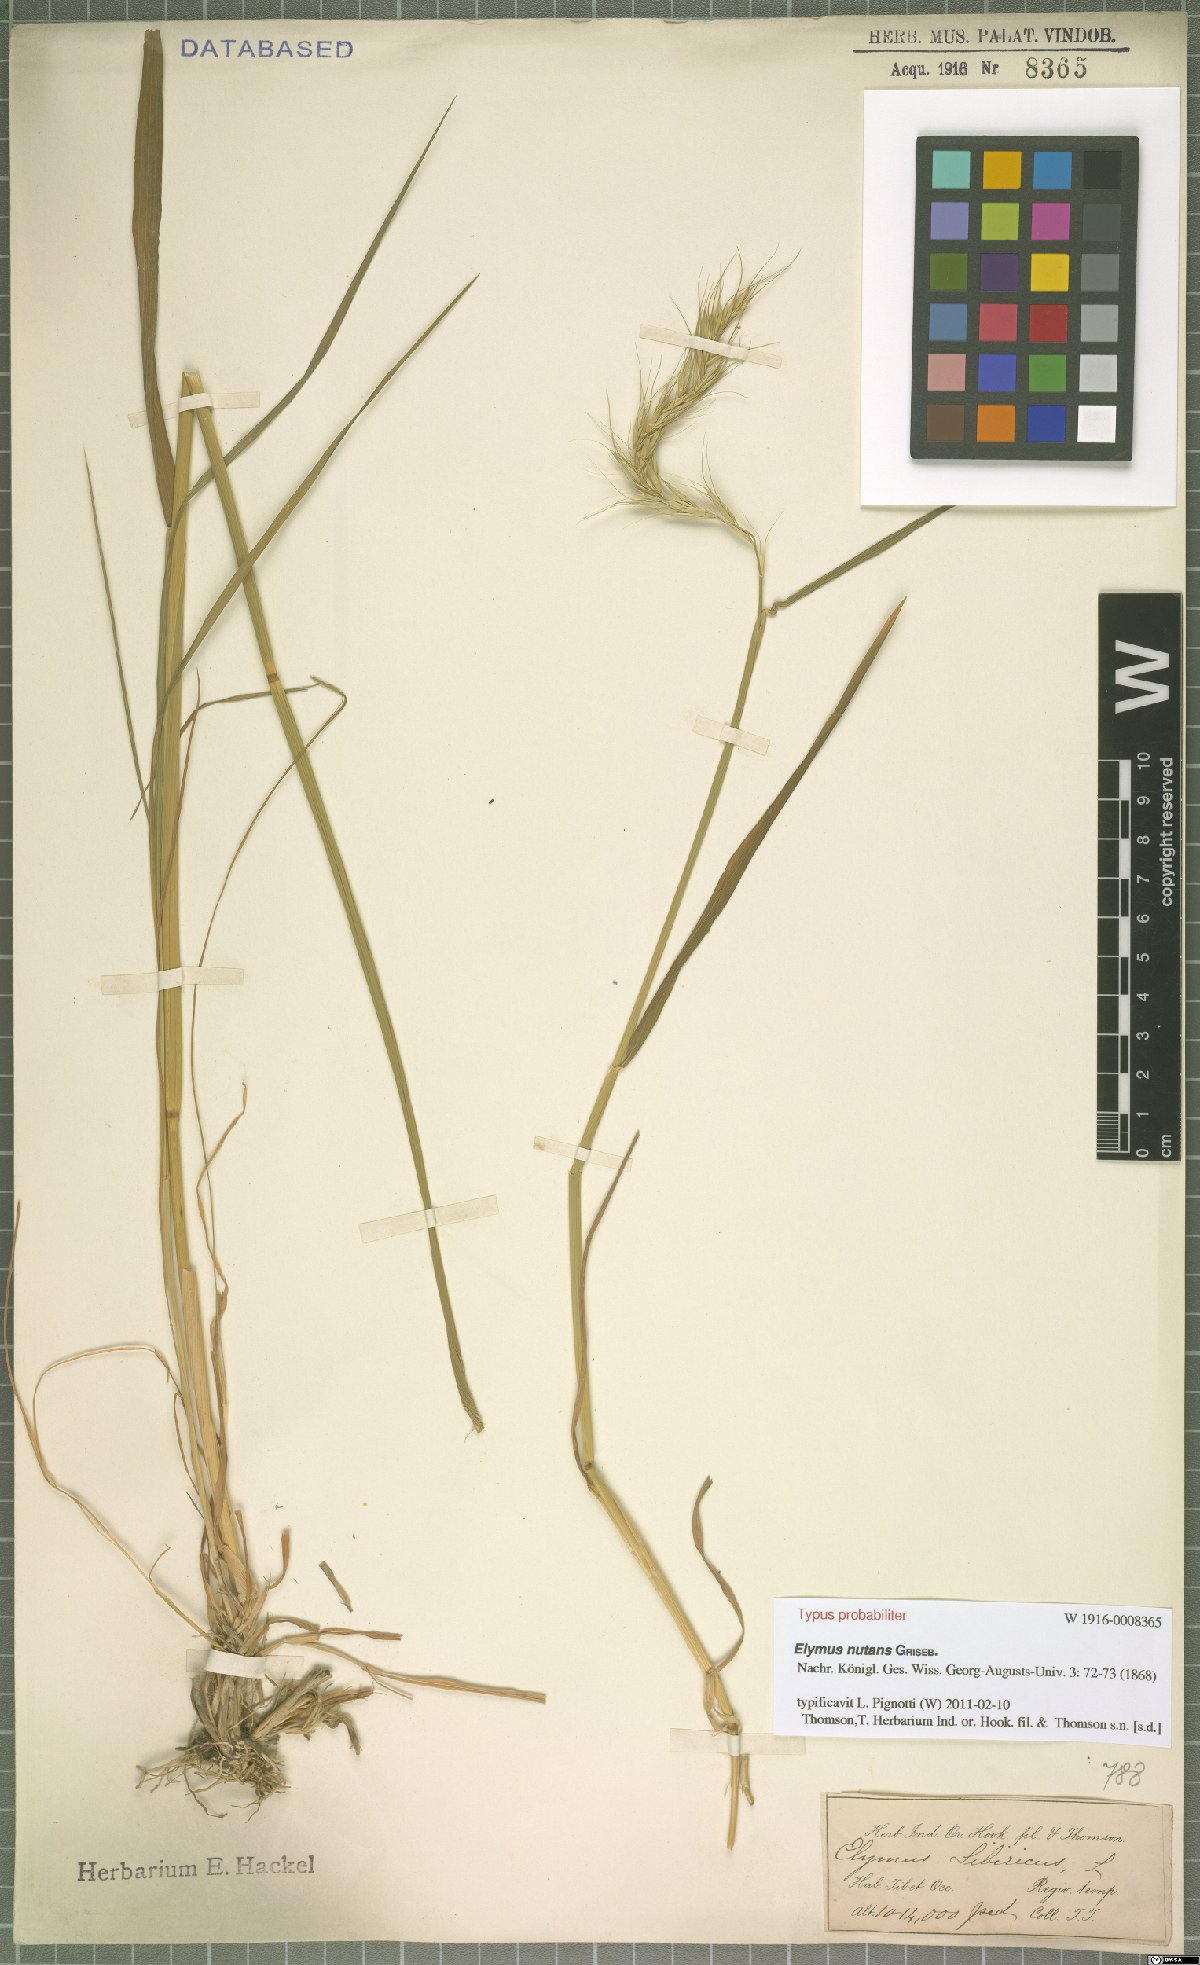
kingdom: Plantae
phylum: Tracheophyta
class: Liliopsida
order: Poales
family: Poaceae
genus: Elymus
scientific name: Elymus nutans
